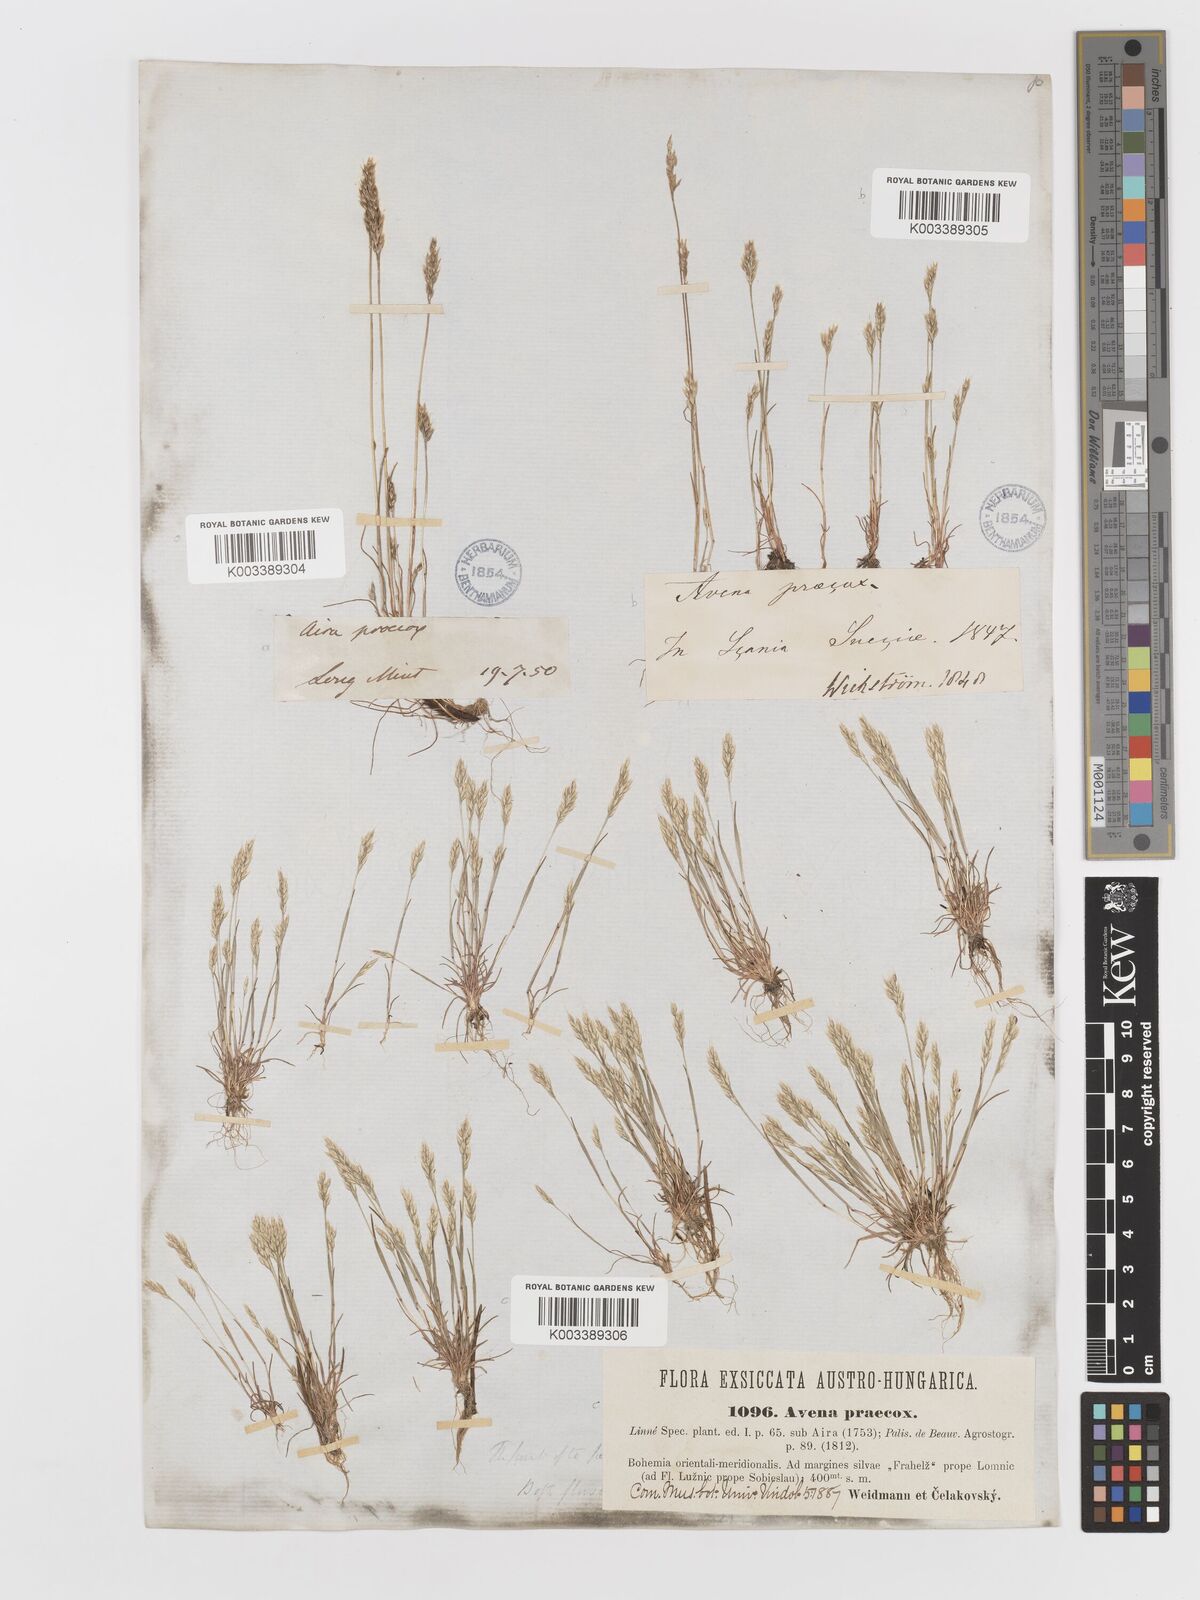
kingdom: Plantae
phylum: Tracheophyta
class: Liliopsida
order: Poales
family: Poaceae
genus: Aira
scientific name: Aira praecox
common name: Early hair-grass
